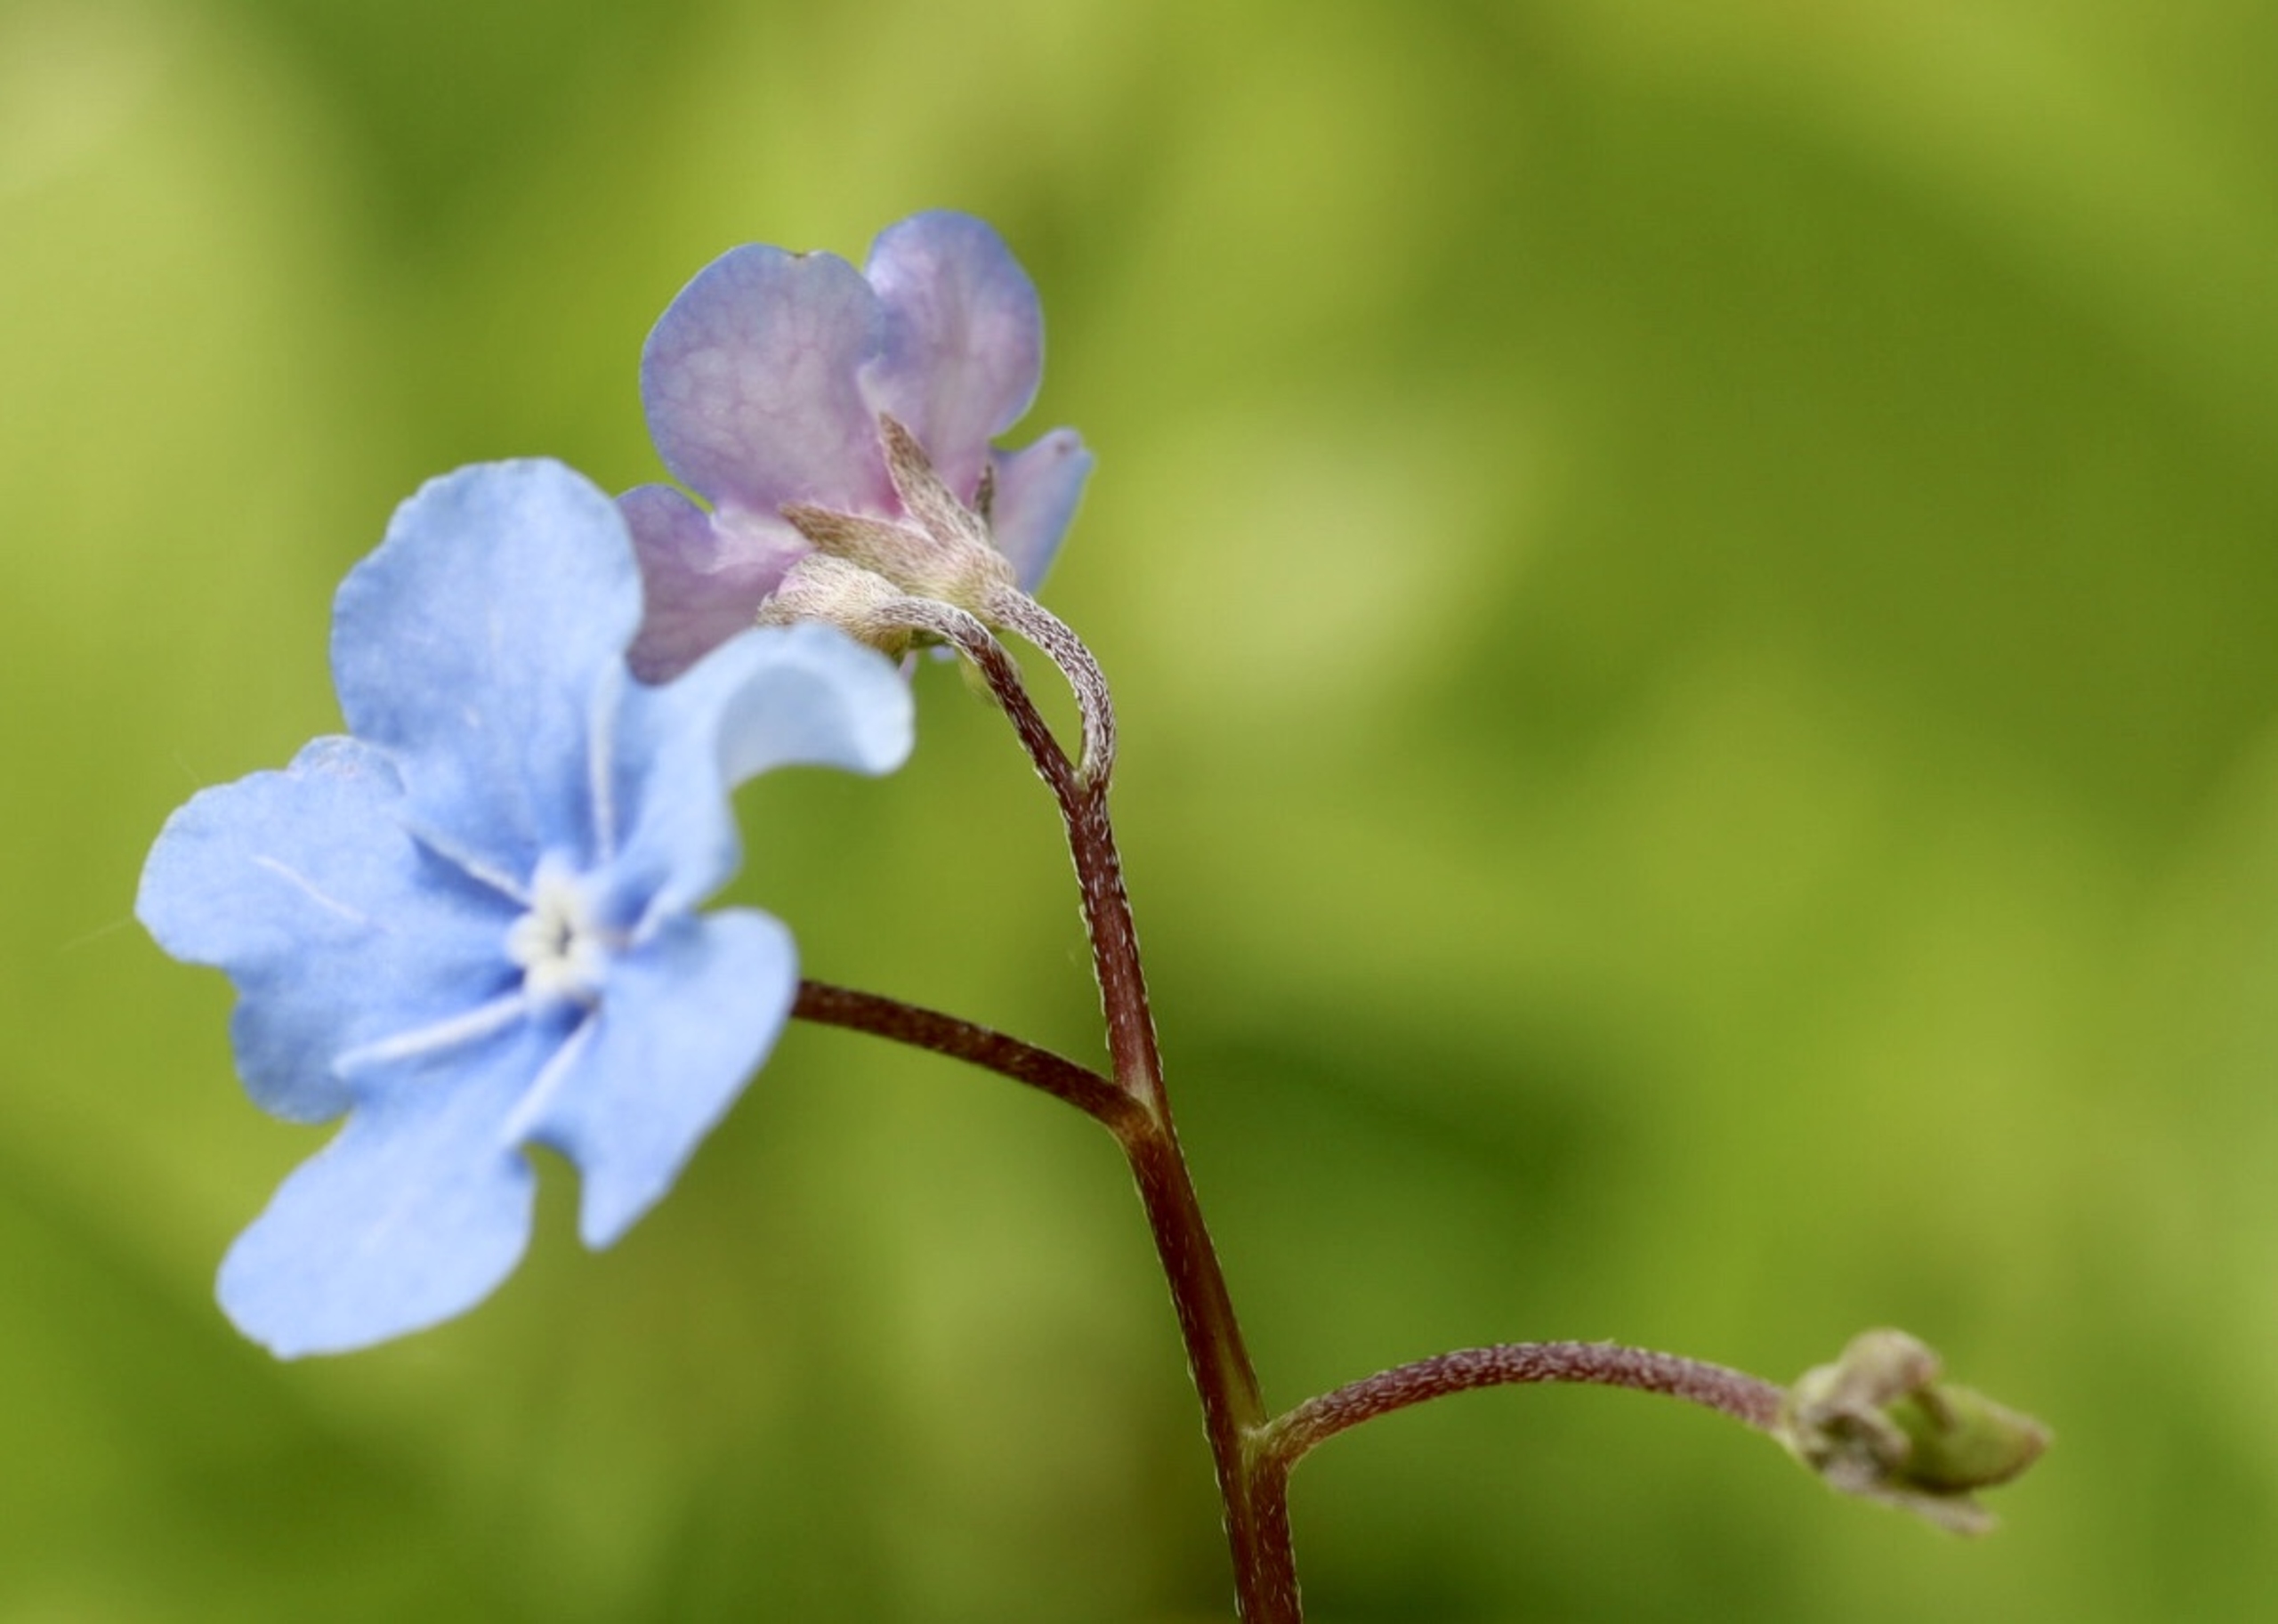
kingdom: Plantae
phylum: Tracheophyta
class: Magnoliopsida
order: Boraginales
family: Boraginaceae
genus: Omphalodes
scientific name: Omphalodes verna
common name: Vår-kærminde
